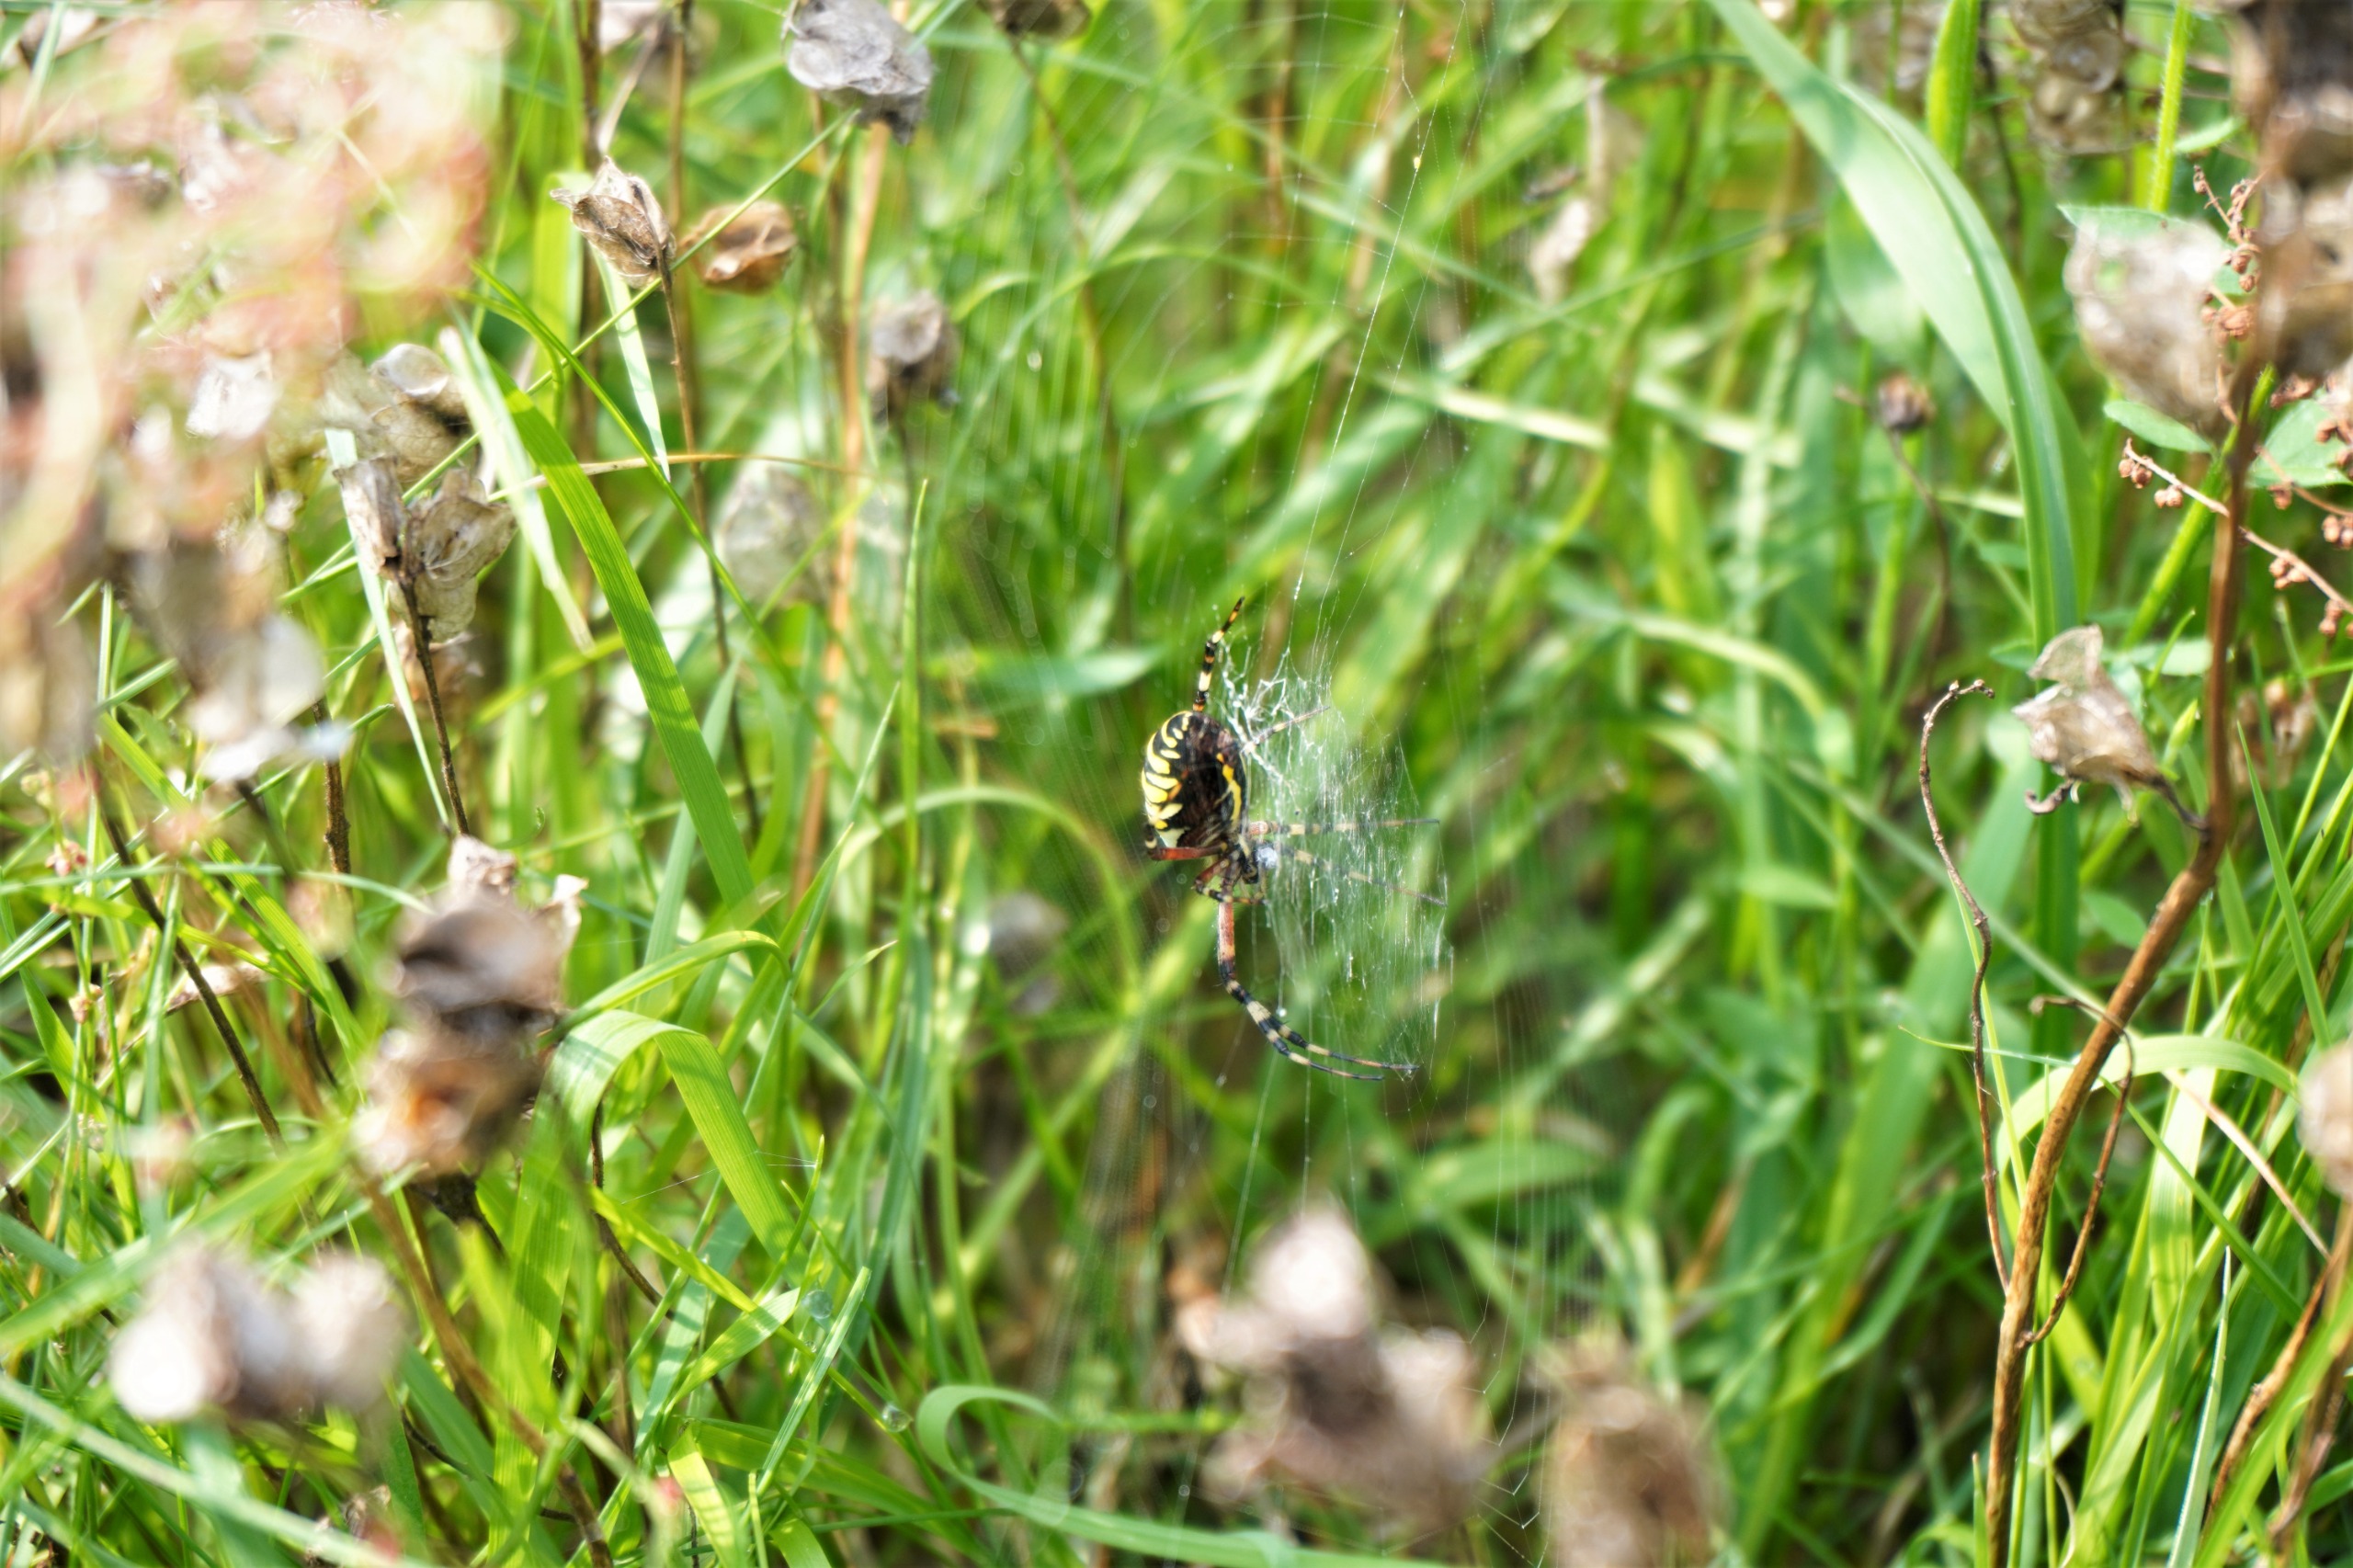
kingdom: Animalia
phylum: Arthropoda
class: Arachnida
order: Araneae
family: Araneidae
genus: Argiope
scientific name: Argiope bruennichi
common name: Hvepseedderkop
